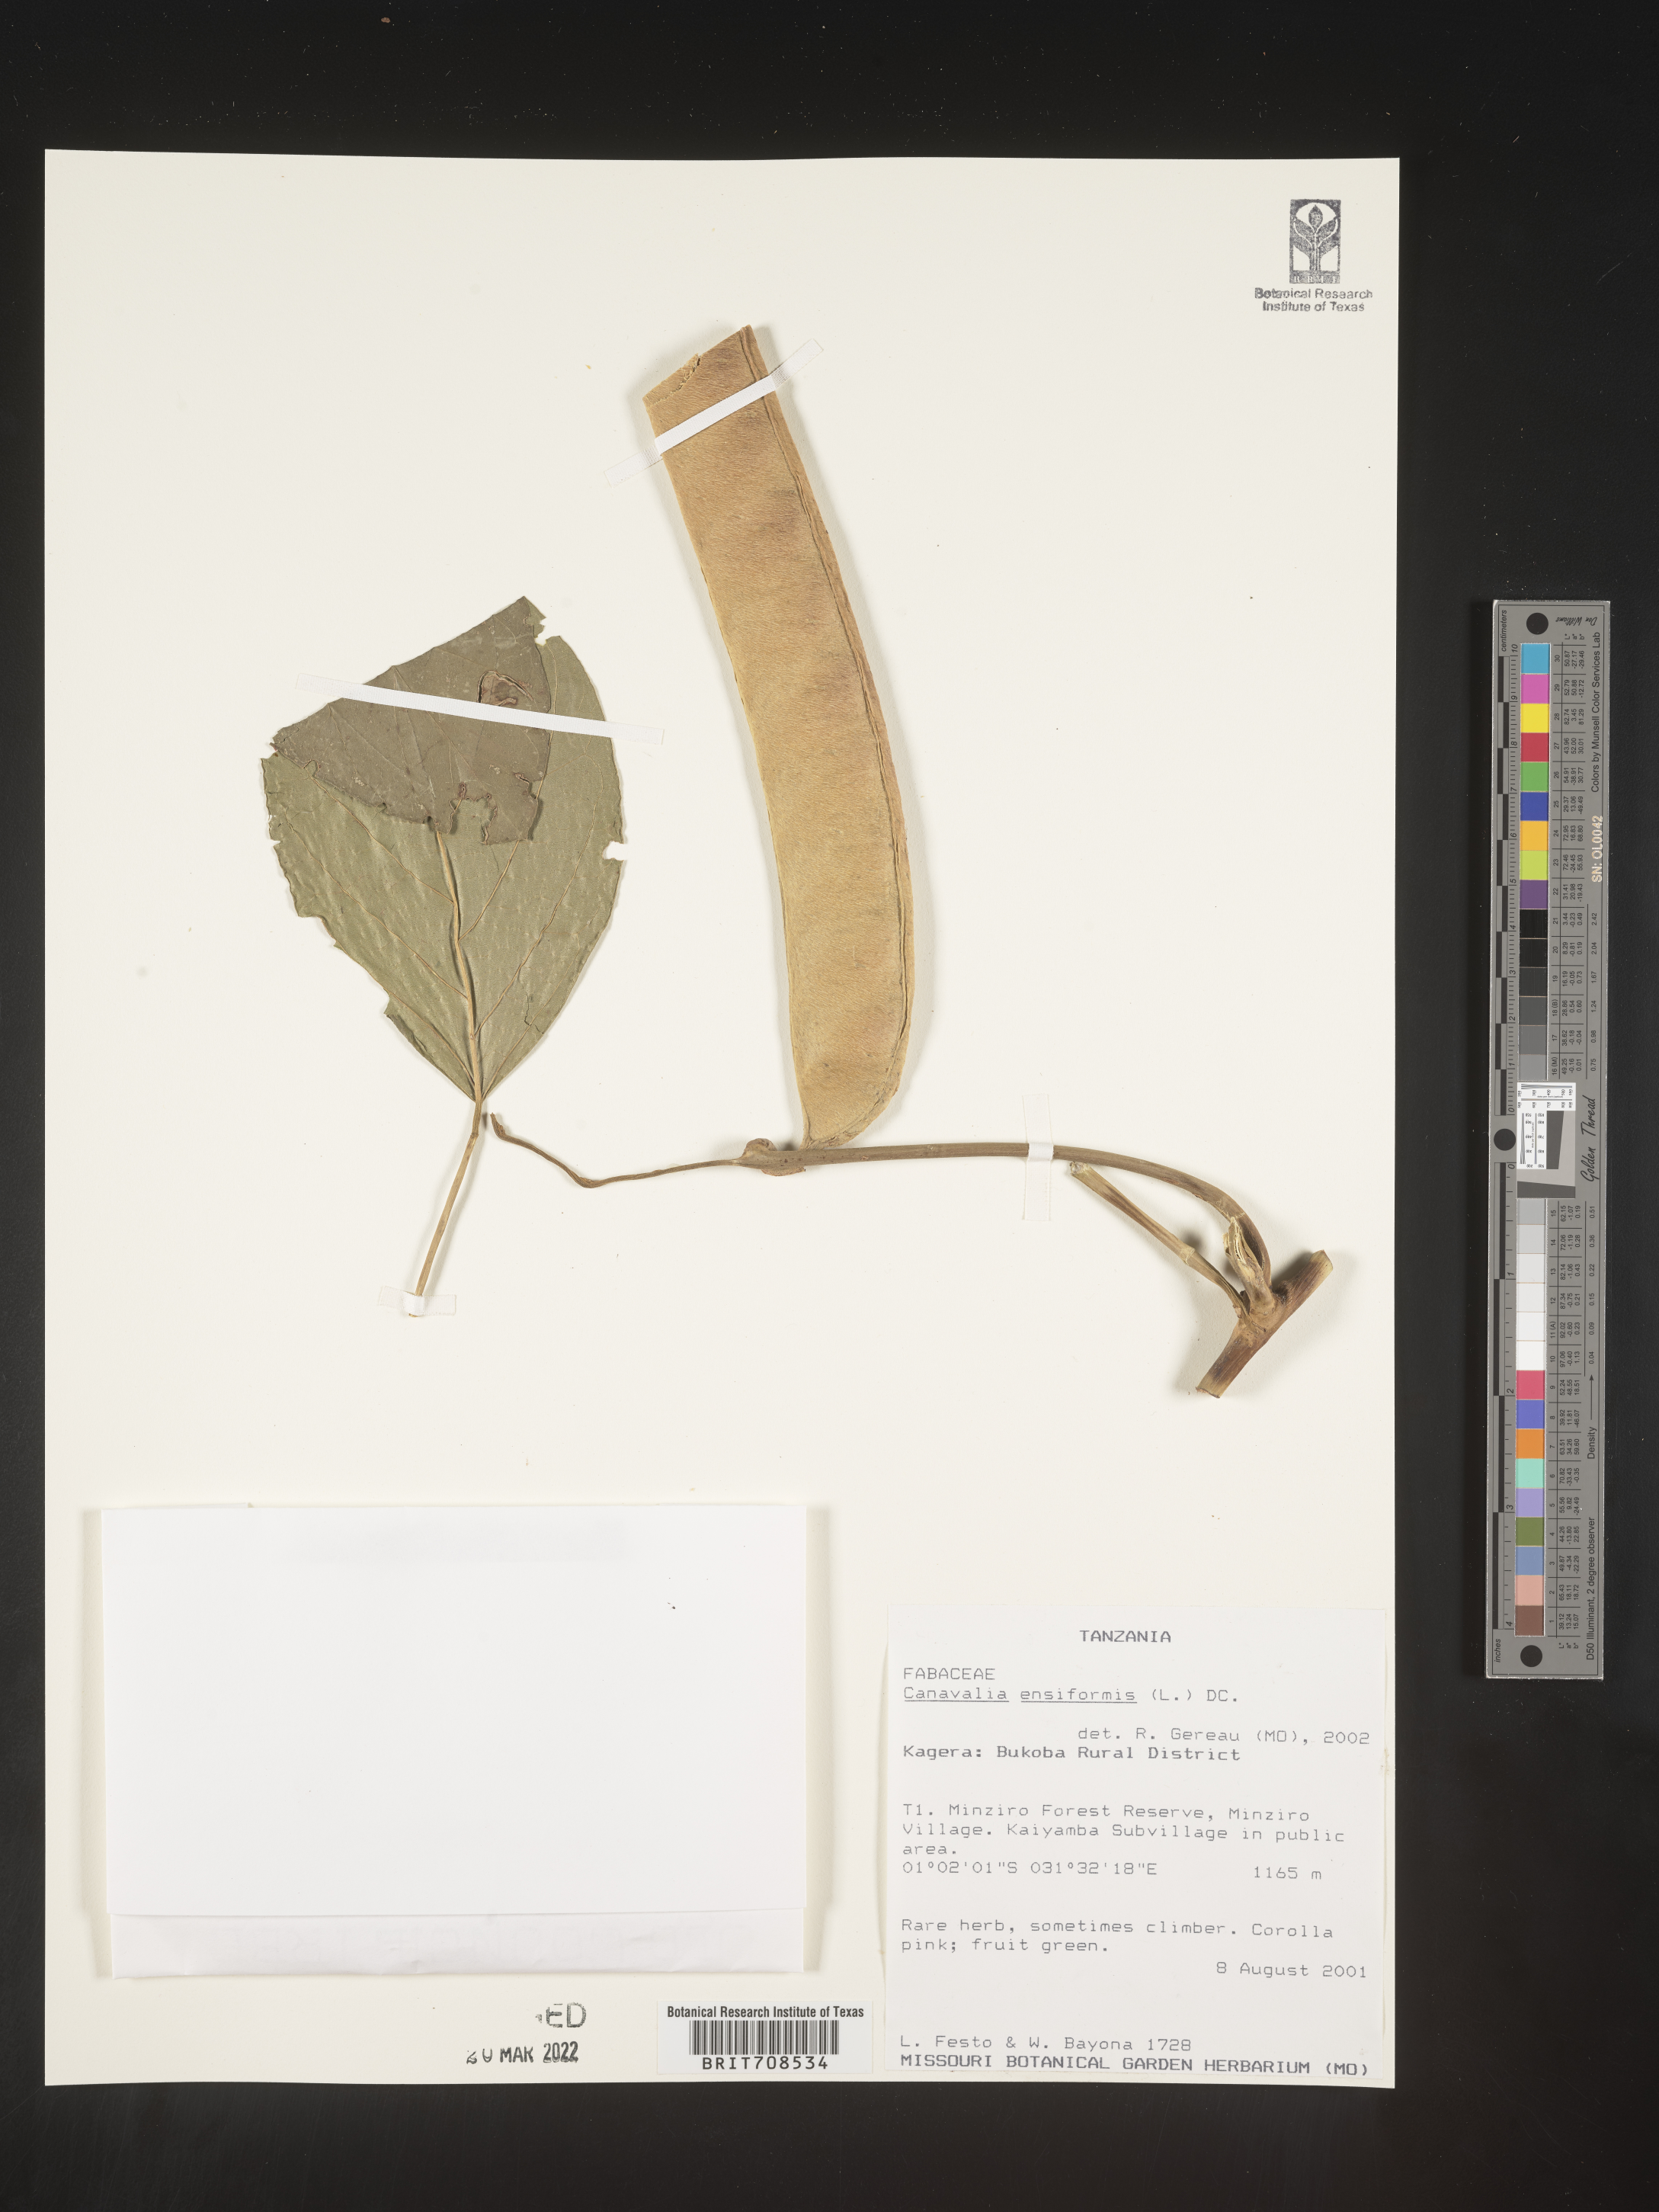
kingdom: Plantae
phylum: Tracheophyta
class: Magnoliopsida
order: Fabales
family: Fabaceae
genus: Canavalia
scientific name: Canavalia
